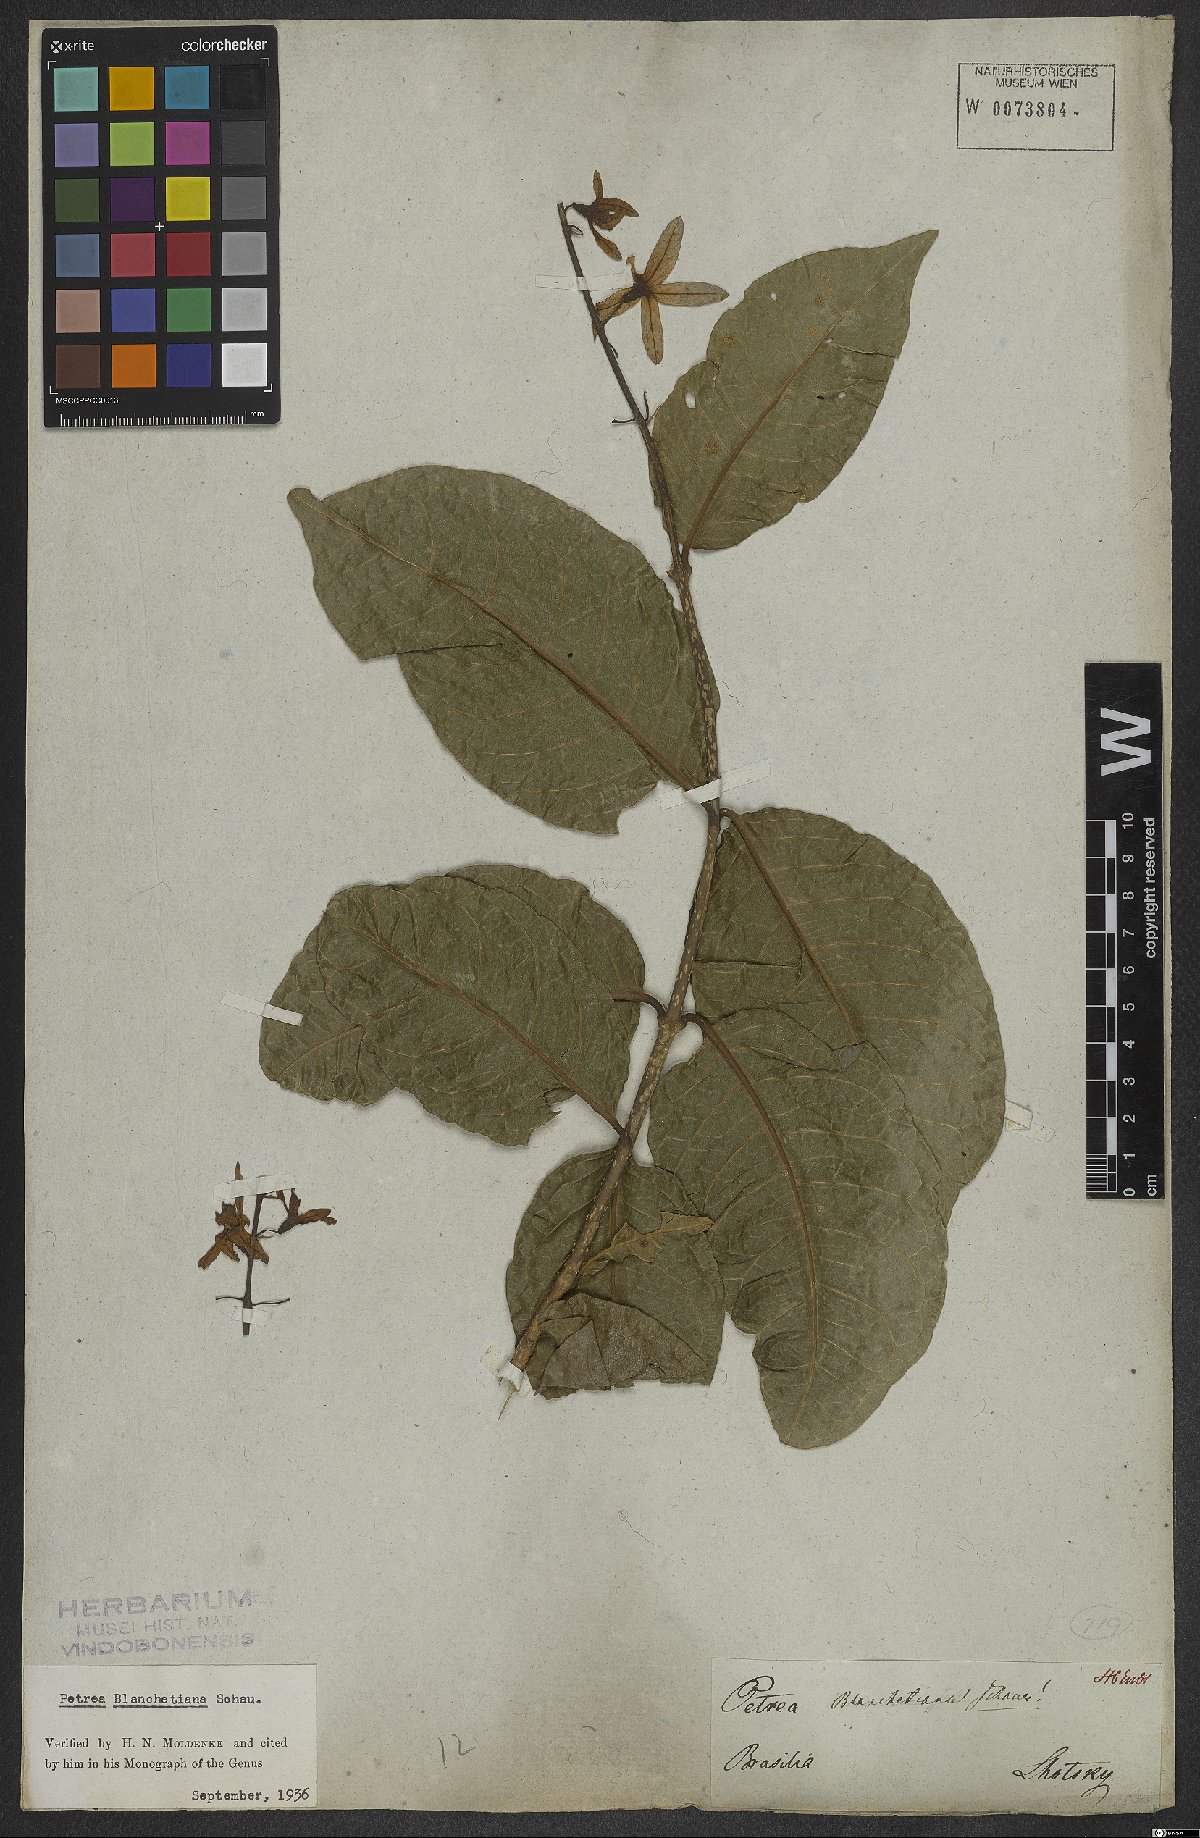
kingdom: Plantae
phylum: Tracheophyta
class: Magnoliopsida
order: Lamiales
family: Verbenaceae
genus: Petrea
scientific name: Petrea blanchetiana
